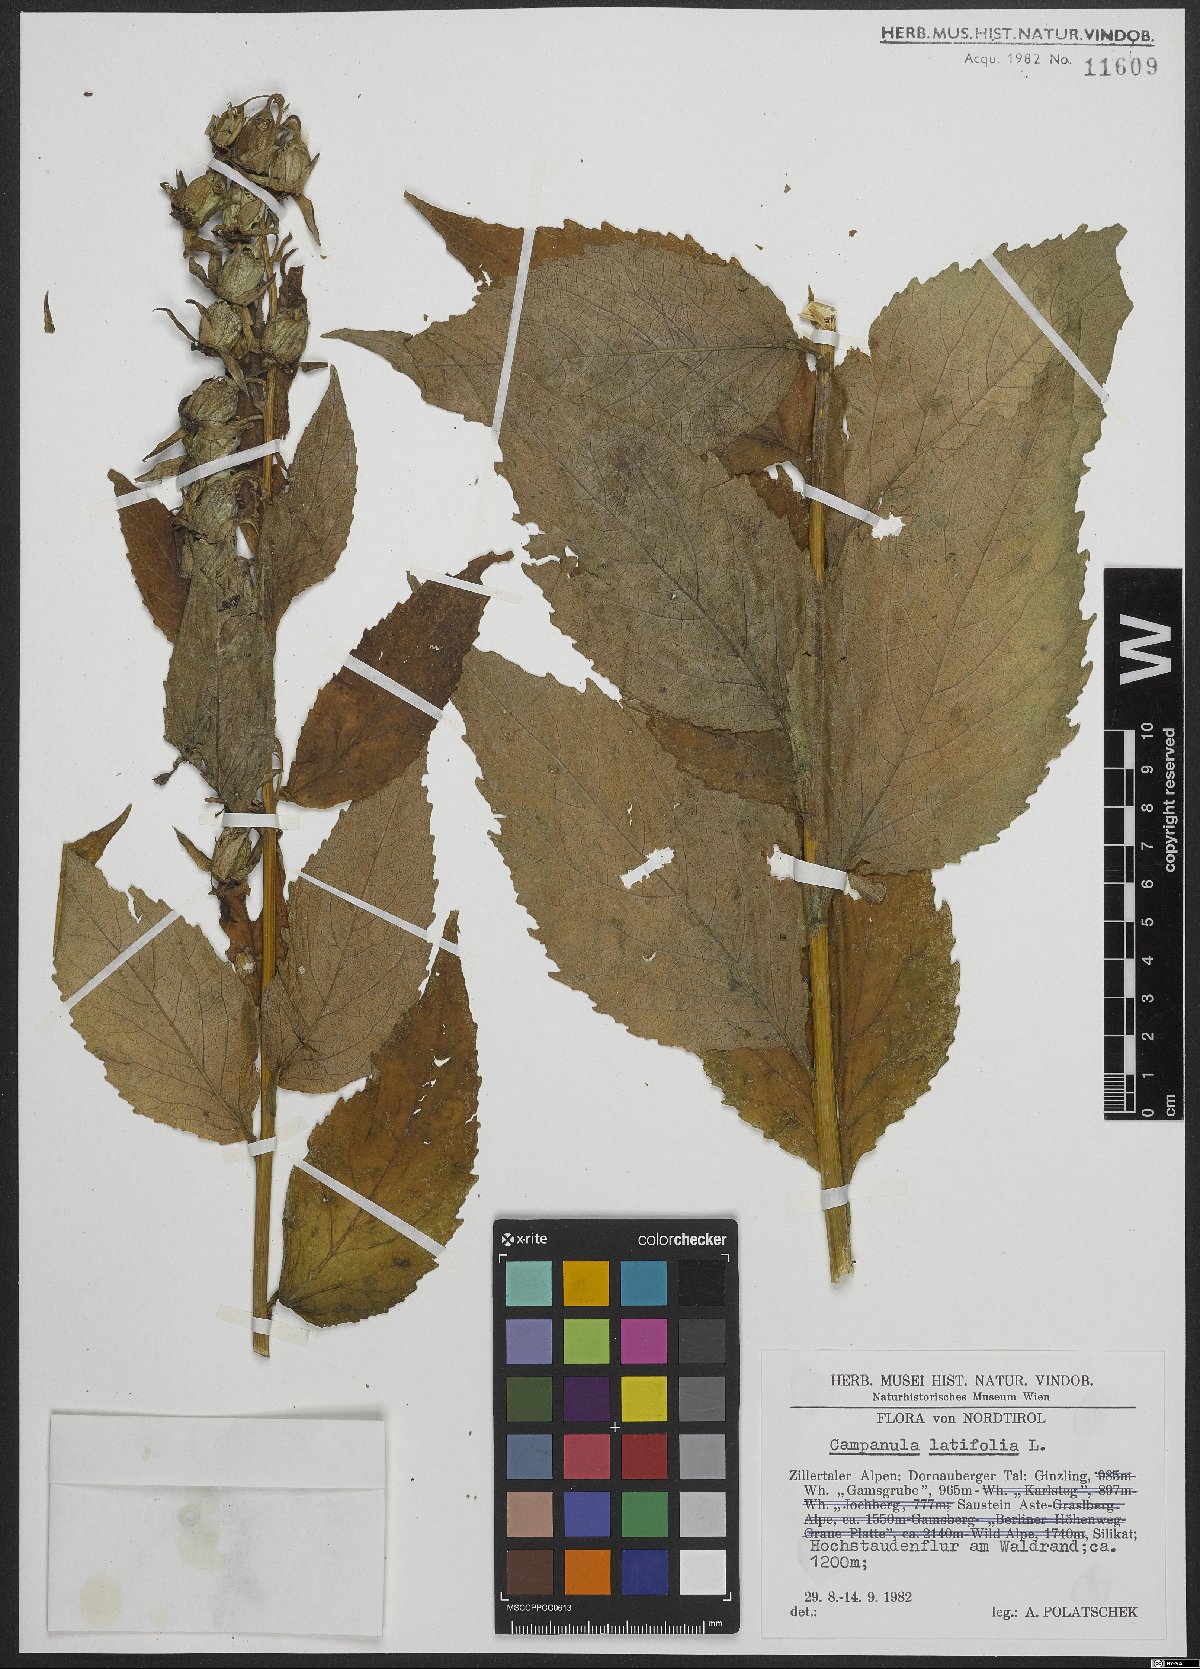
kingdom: Plantae
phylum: Tracheophyta
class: Magnoliopsida
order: Asterales
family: Campanulaceae
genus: Campanula
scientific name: Campanula latifolia
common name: Giant bellflower
